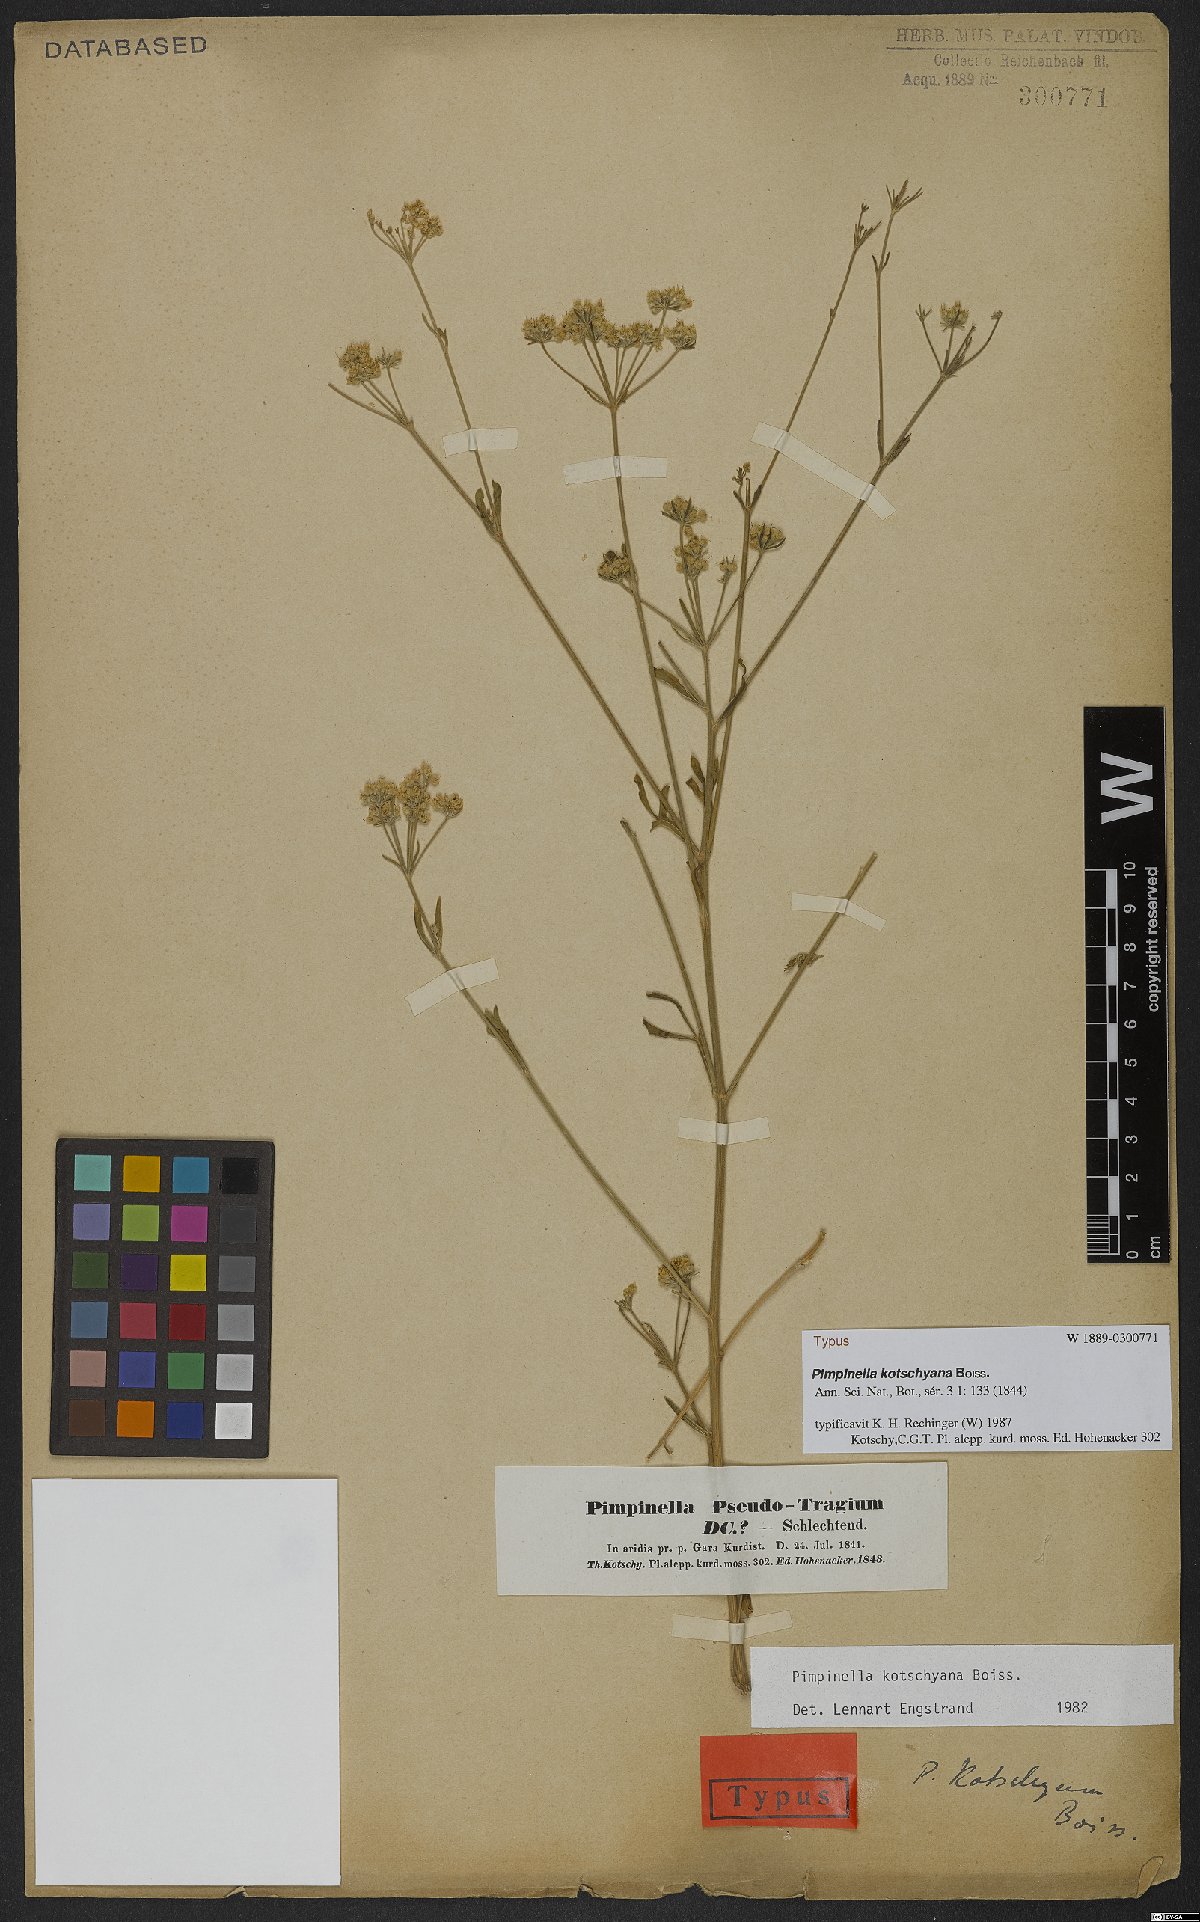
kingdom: Plantae
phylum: Tracheophyta
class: Magnoliopsida
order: Apiales
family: Apiaceae
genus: Pimpinella
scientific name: Pimpinella kotschyana
